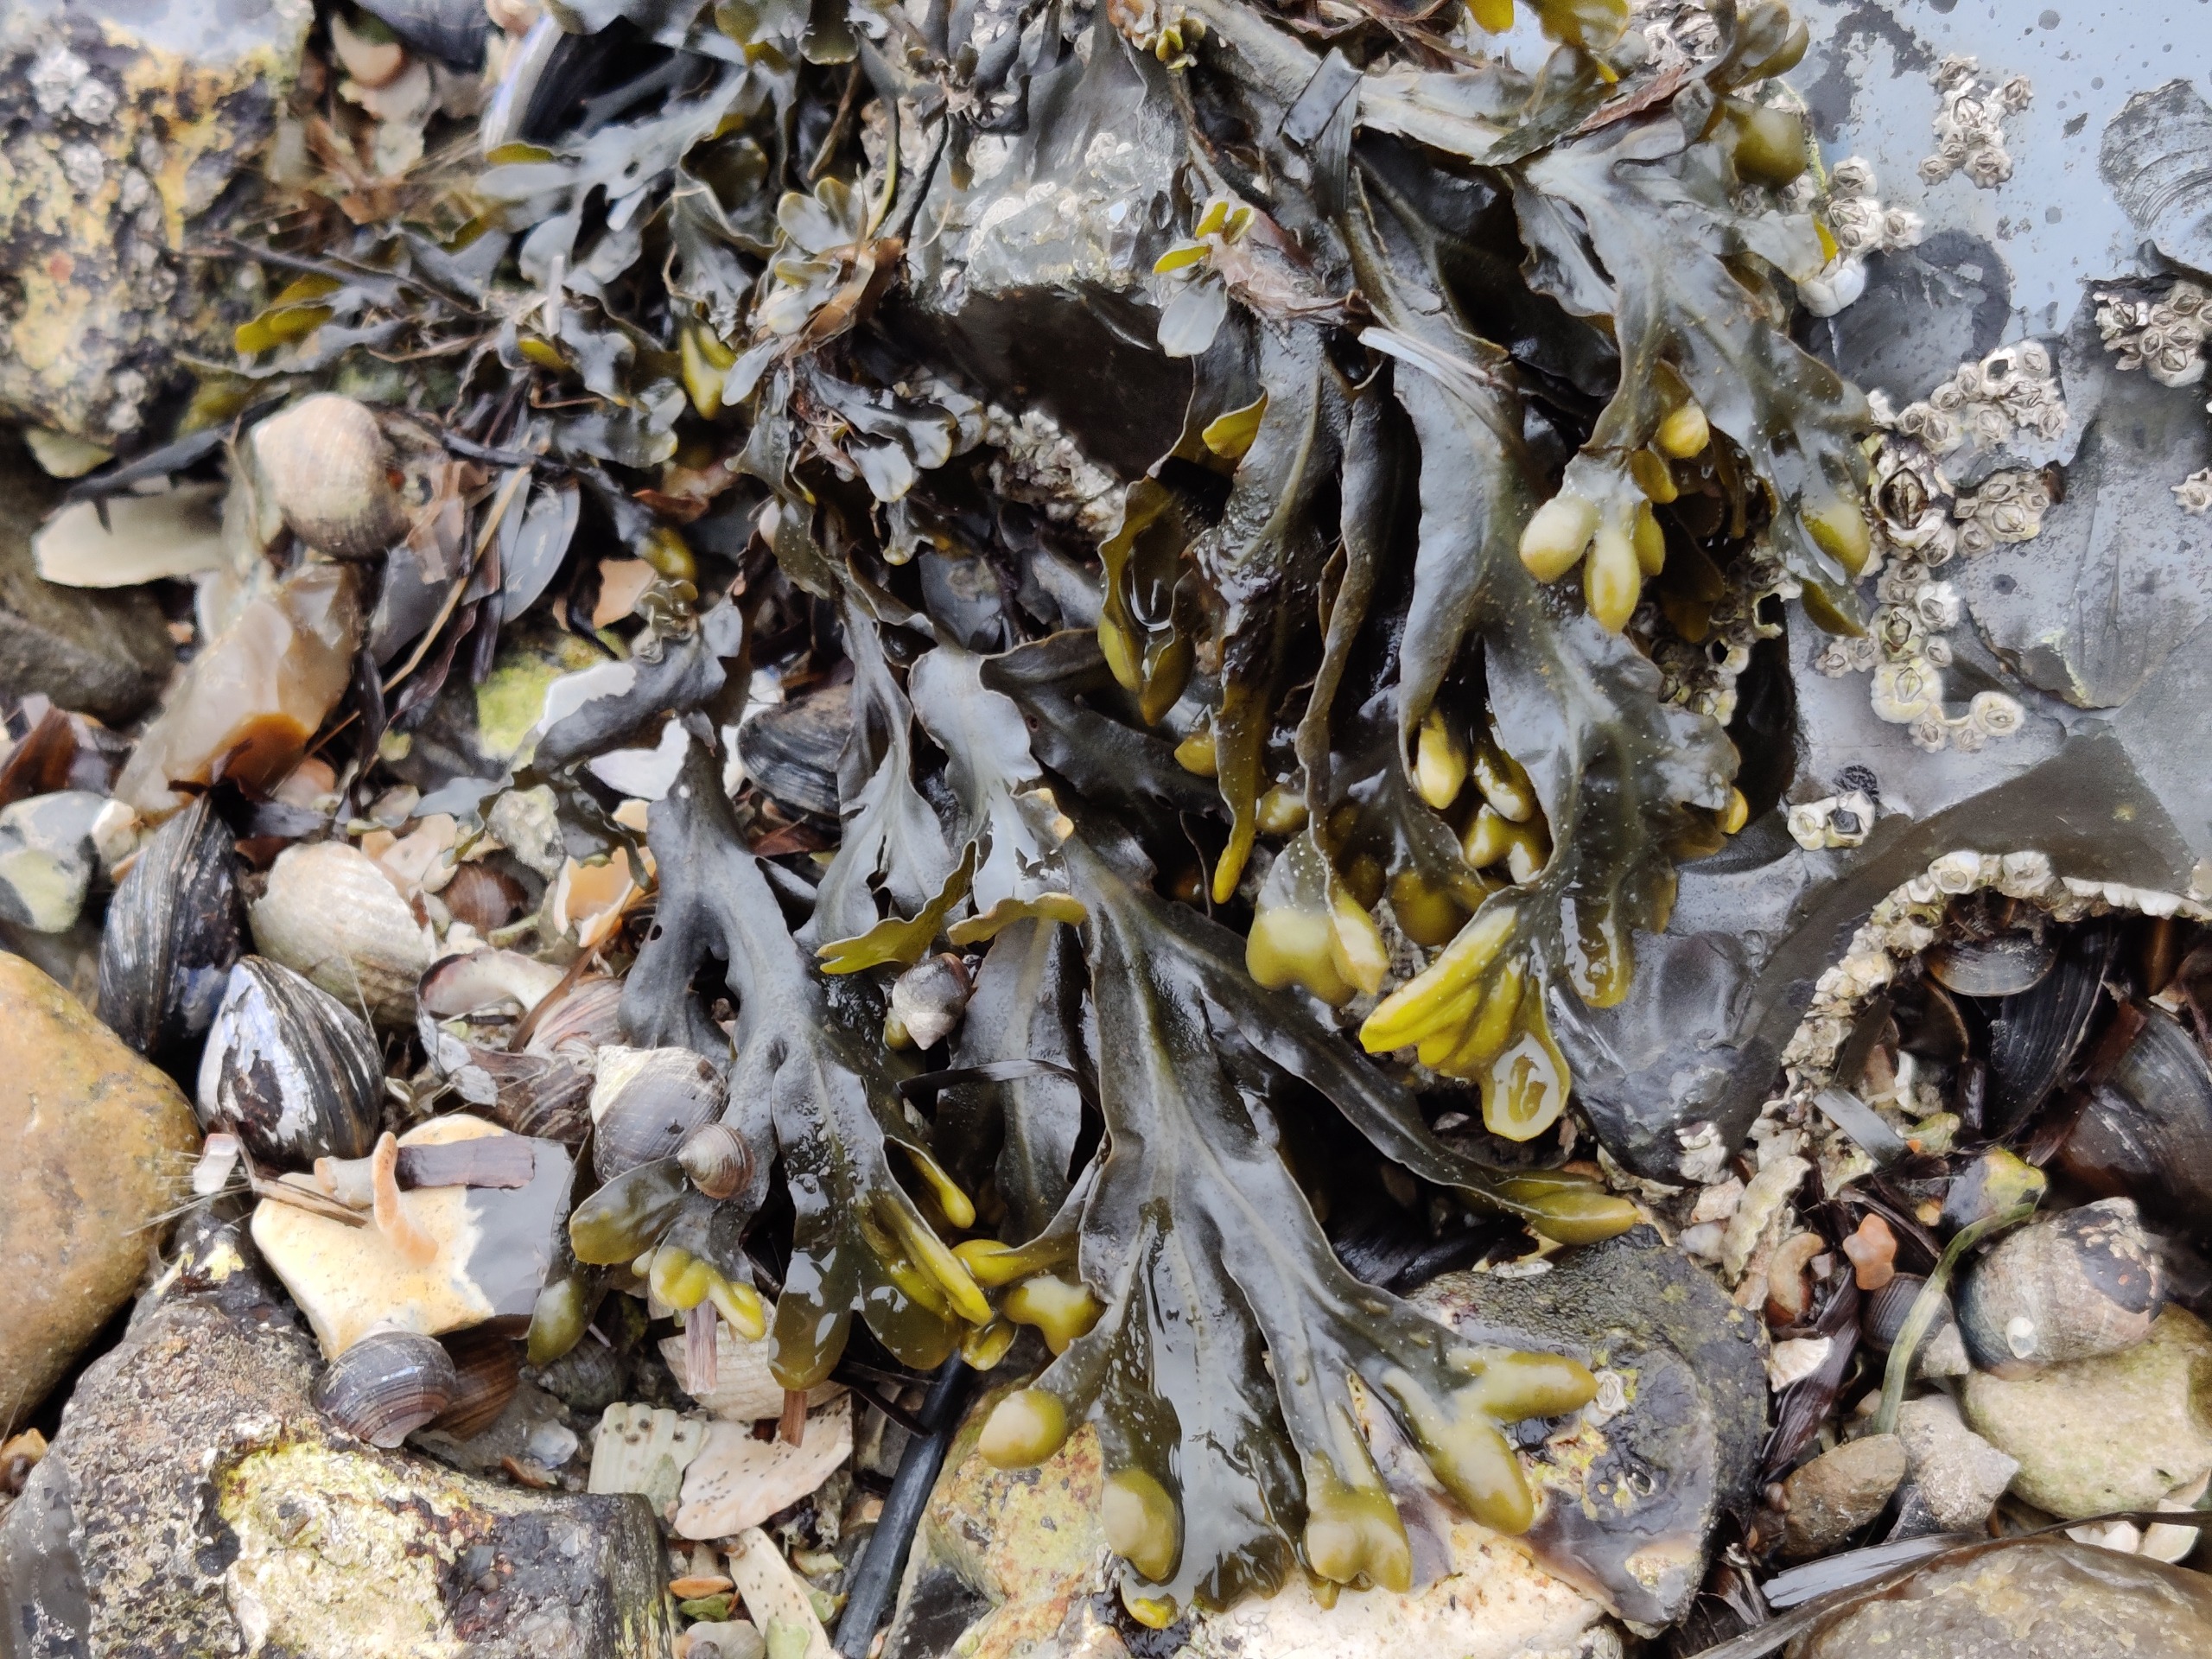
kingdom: Chromista
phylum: Ochrophyta
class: Phaeophyceae
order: Fucales
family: Fucaceae
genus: Fucus
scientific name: Fucus spiralis
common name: Lav klørtang
